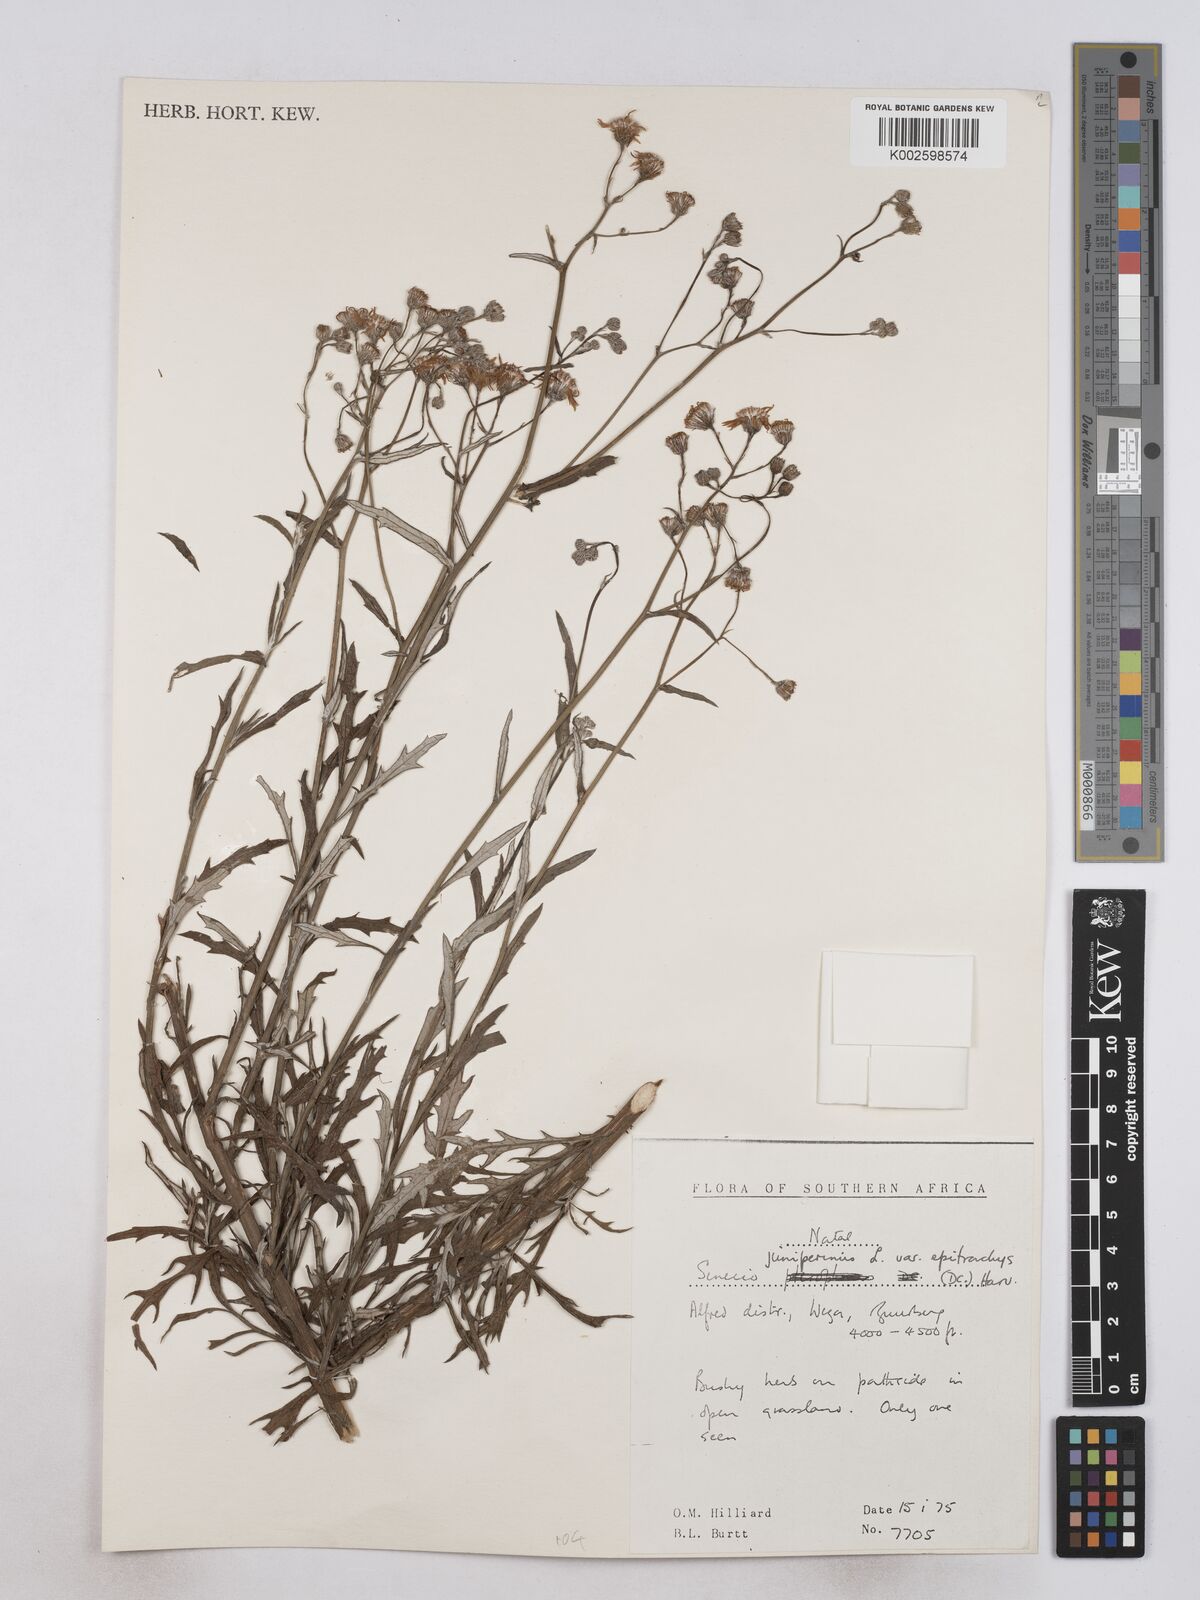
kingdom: Plantae
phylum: Tracheophyta
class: Magnoliopsida
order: Asterales
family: Asteraceae
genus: Senecio
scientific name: Senecio juniperinus
